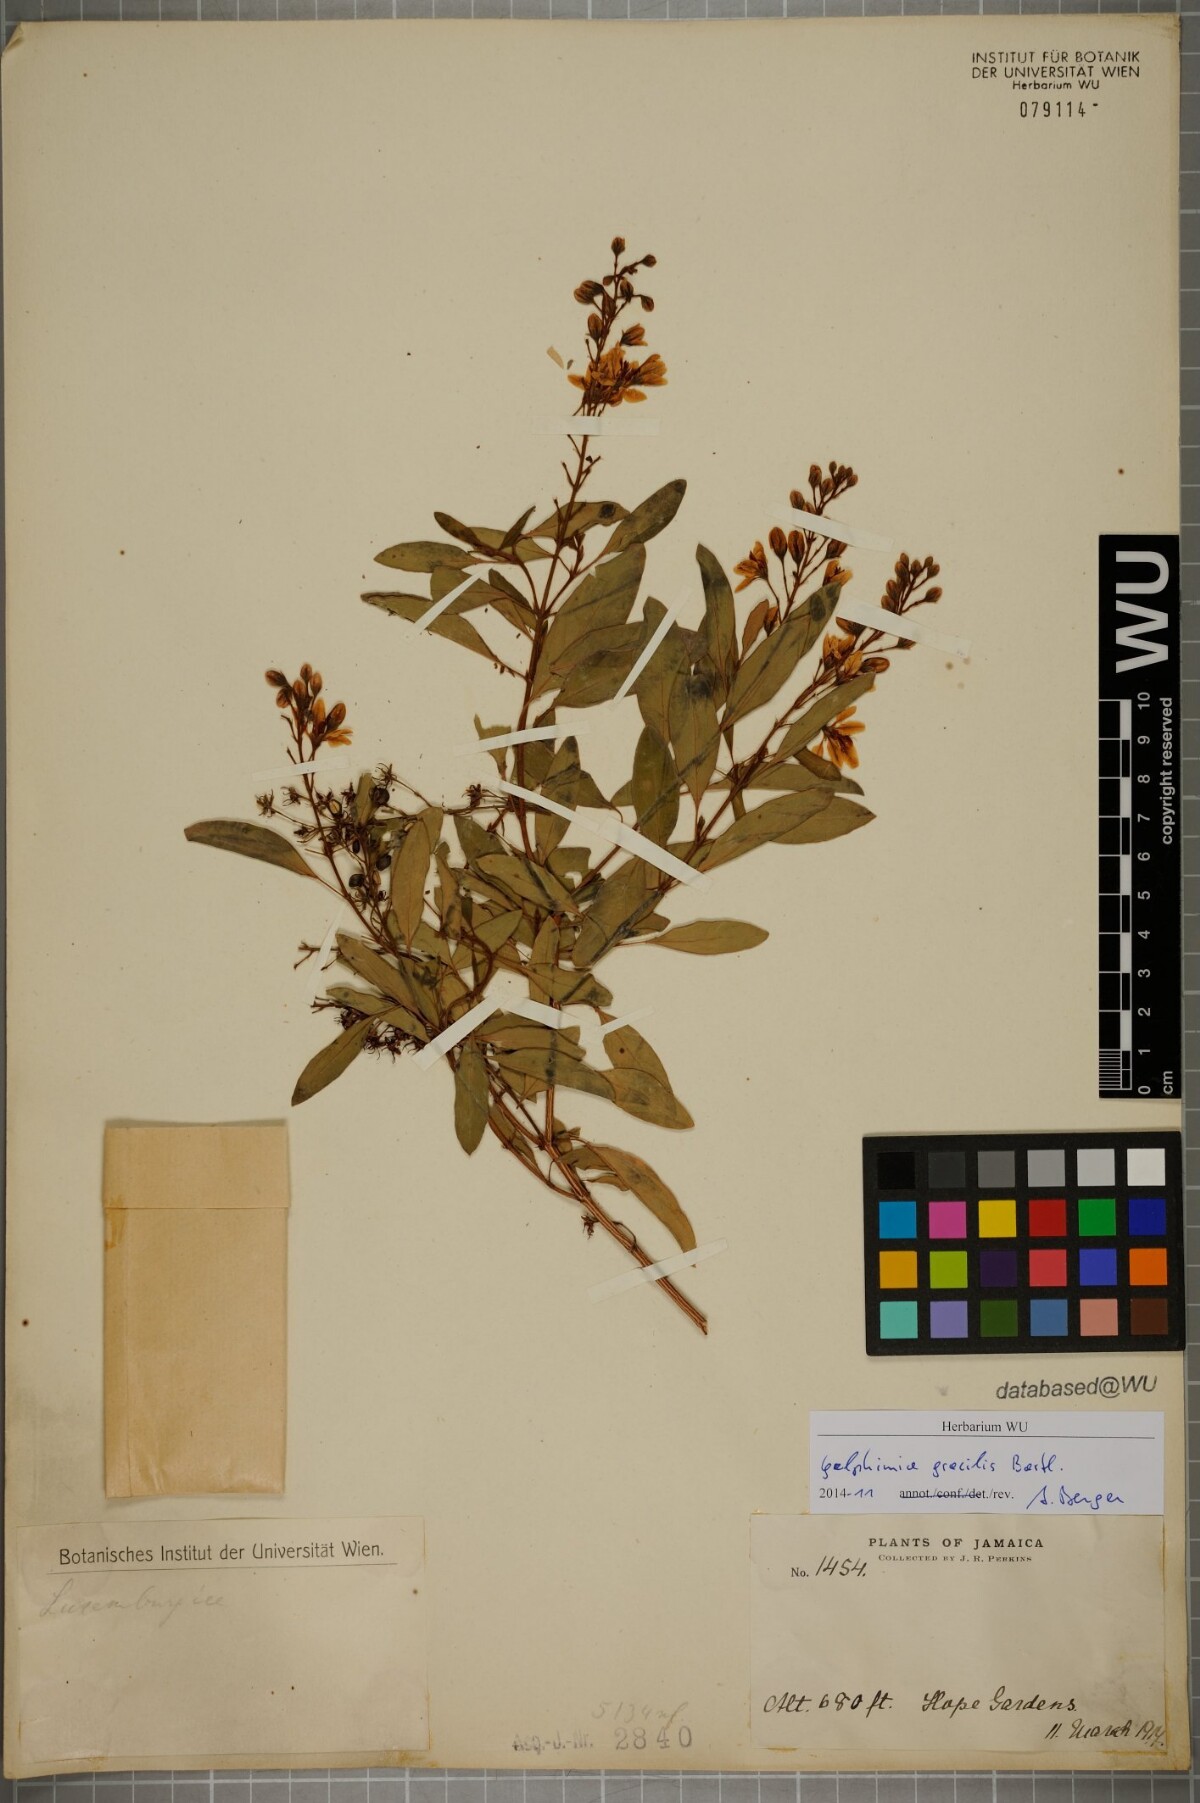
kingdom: Plantae
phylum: Tracheophyta
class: Magnoliopsida
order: Malpighiales
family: Malpighiaceae
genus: Galphimia
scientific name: Galphimia gracilis
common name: Slender goldshower
